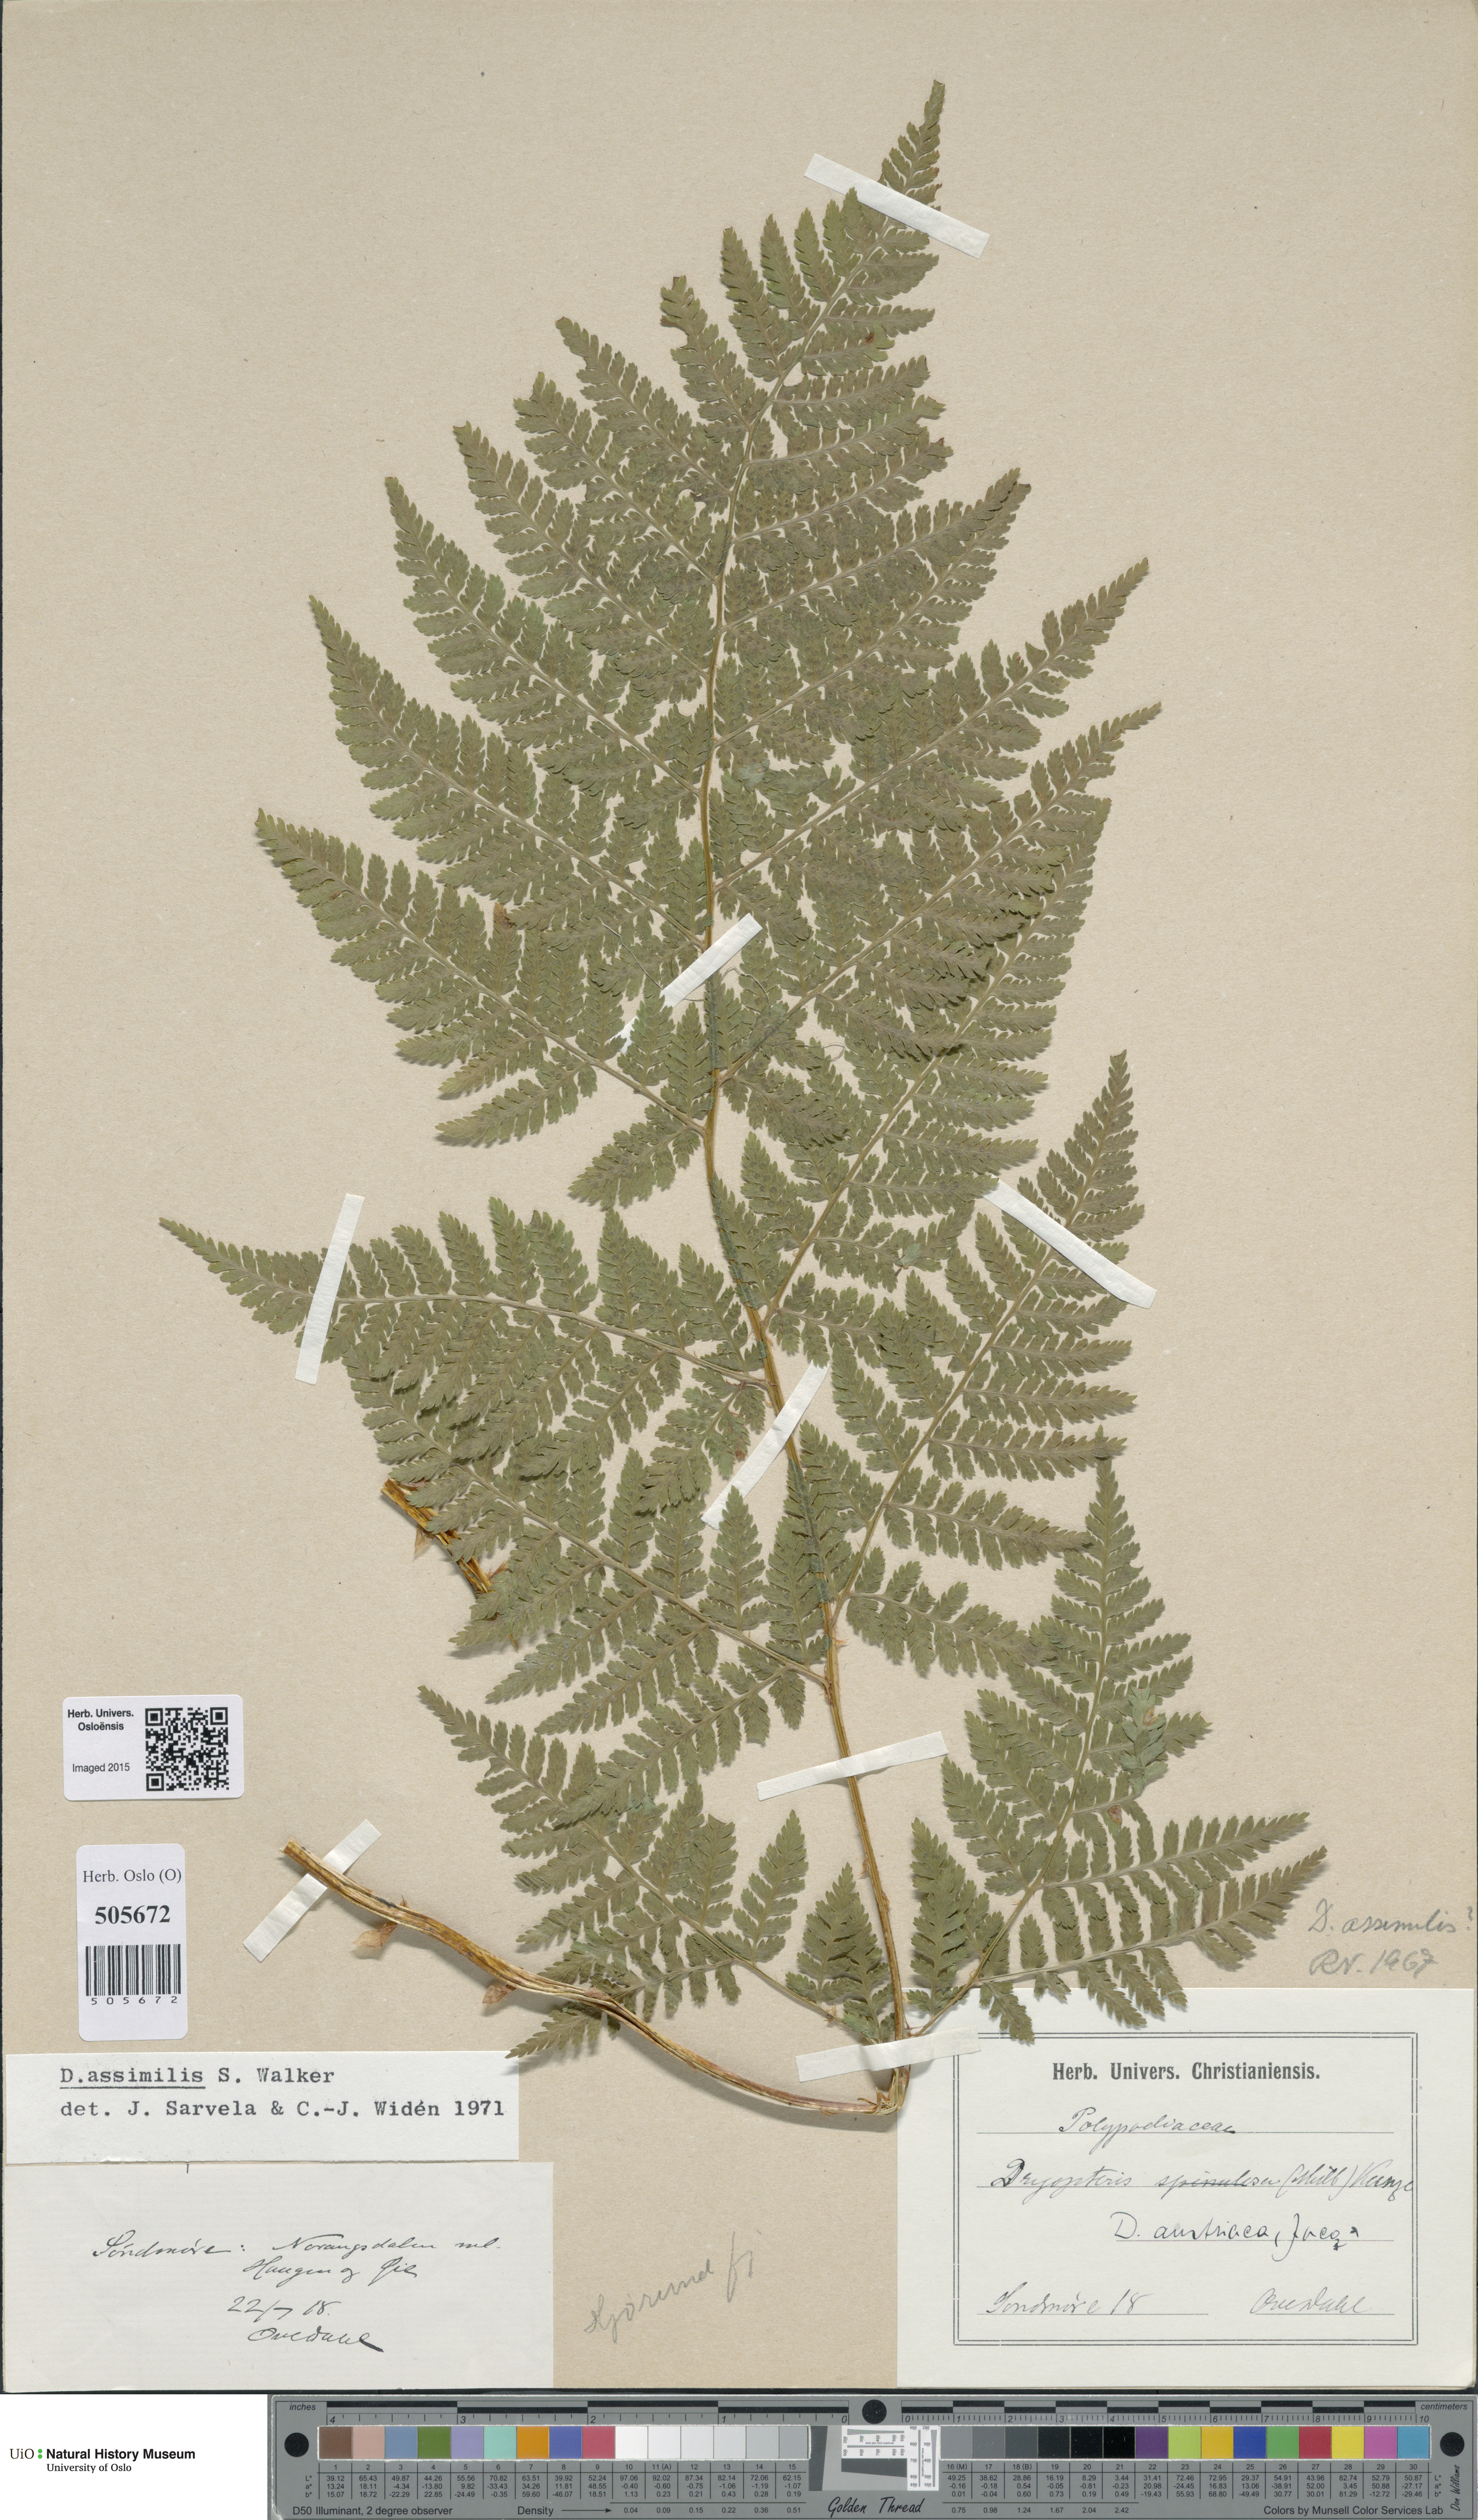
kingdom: Plantae
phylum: Tracheophyta
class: Polypodiopsida
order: Polypodiales
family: Dryopteridaceae
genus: Dryopteris
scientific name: Dryopteris expansa
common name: Northern buckler fern
